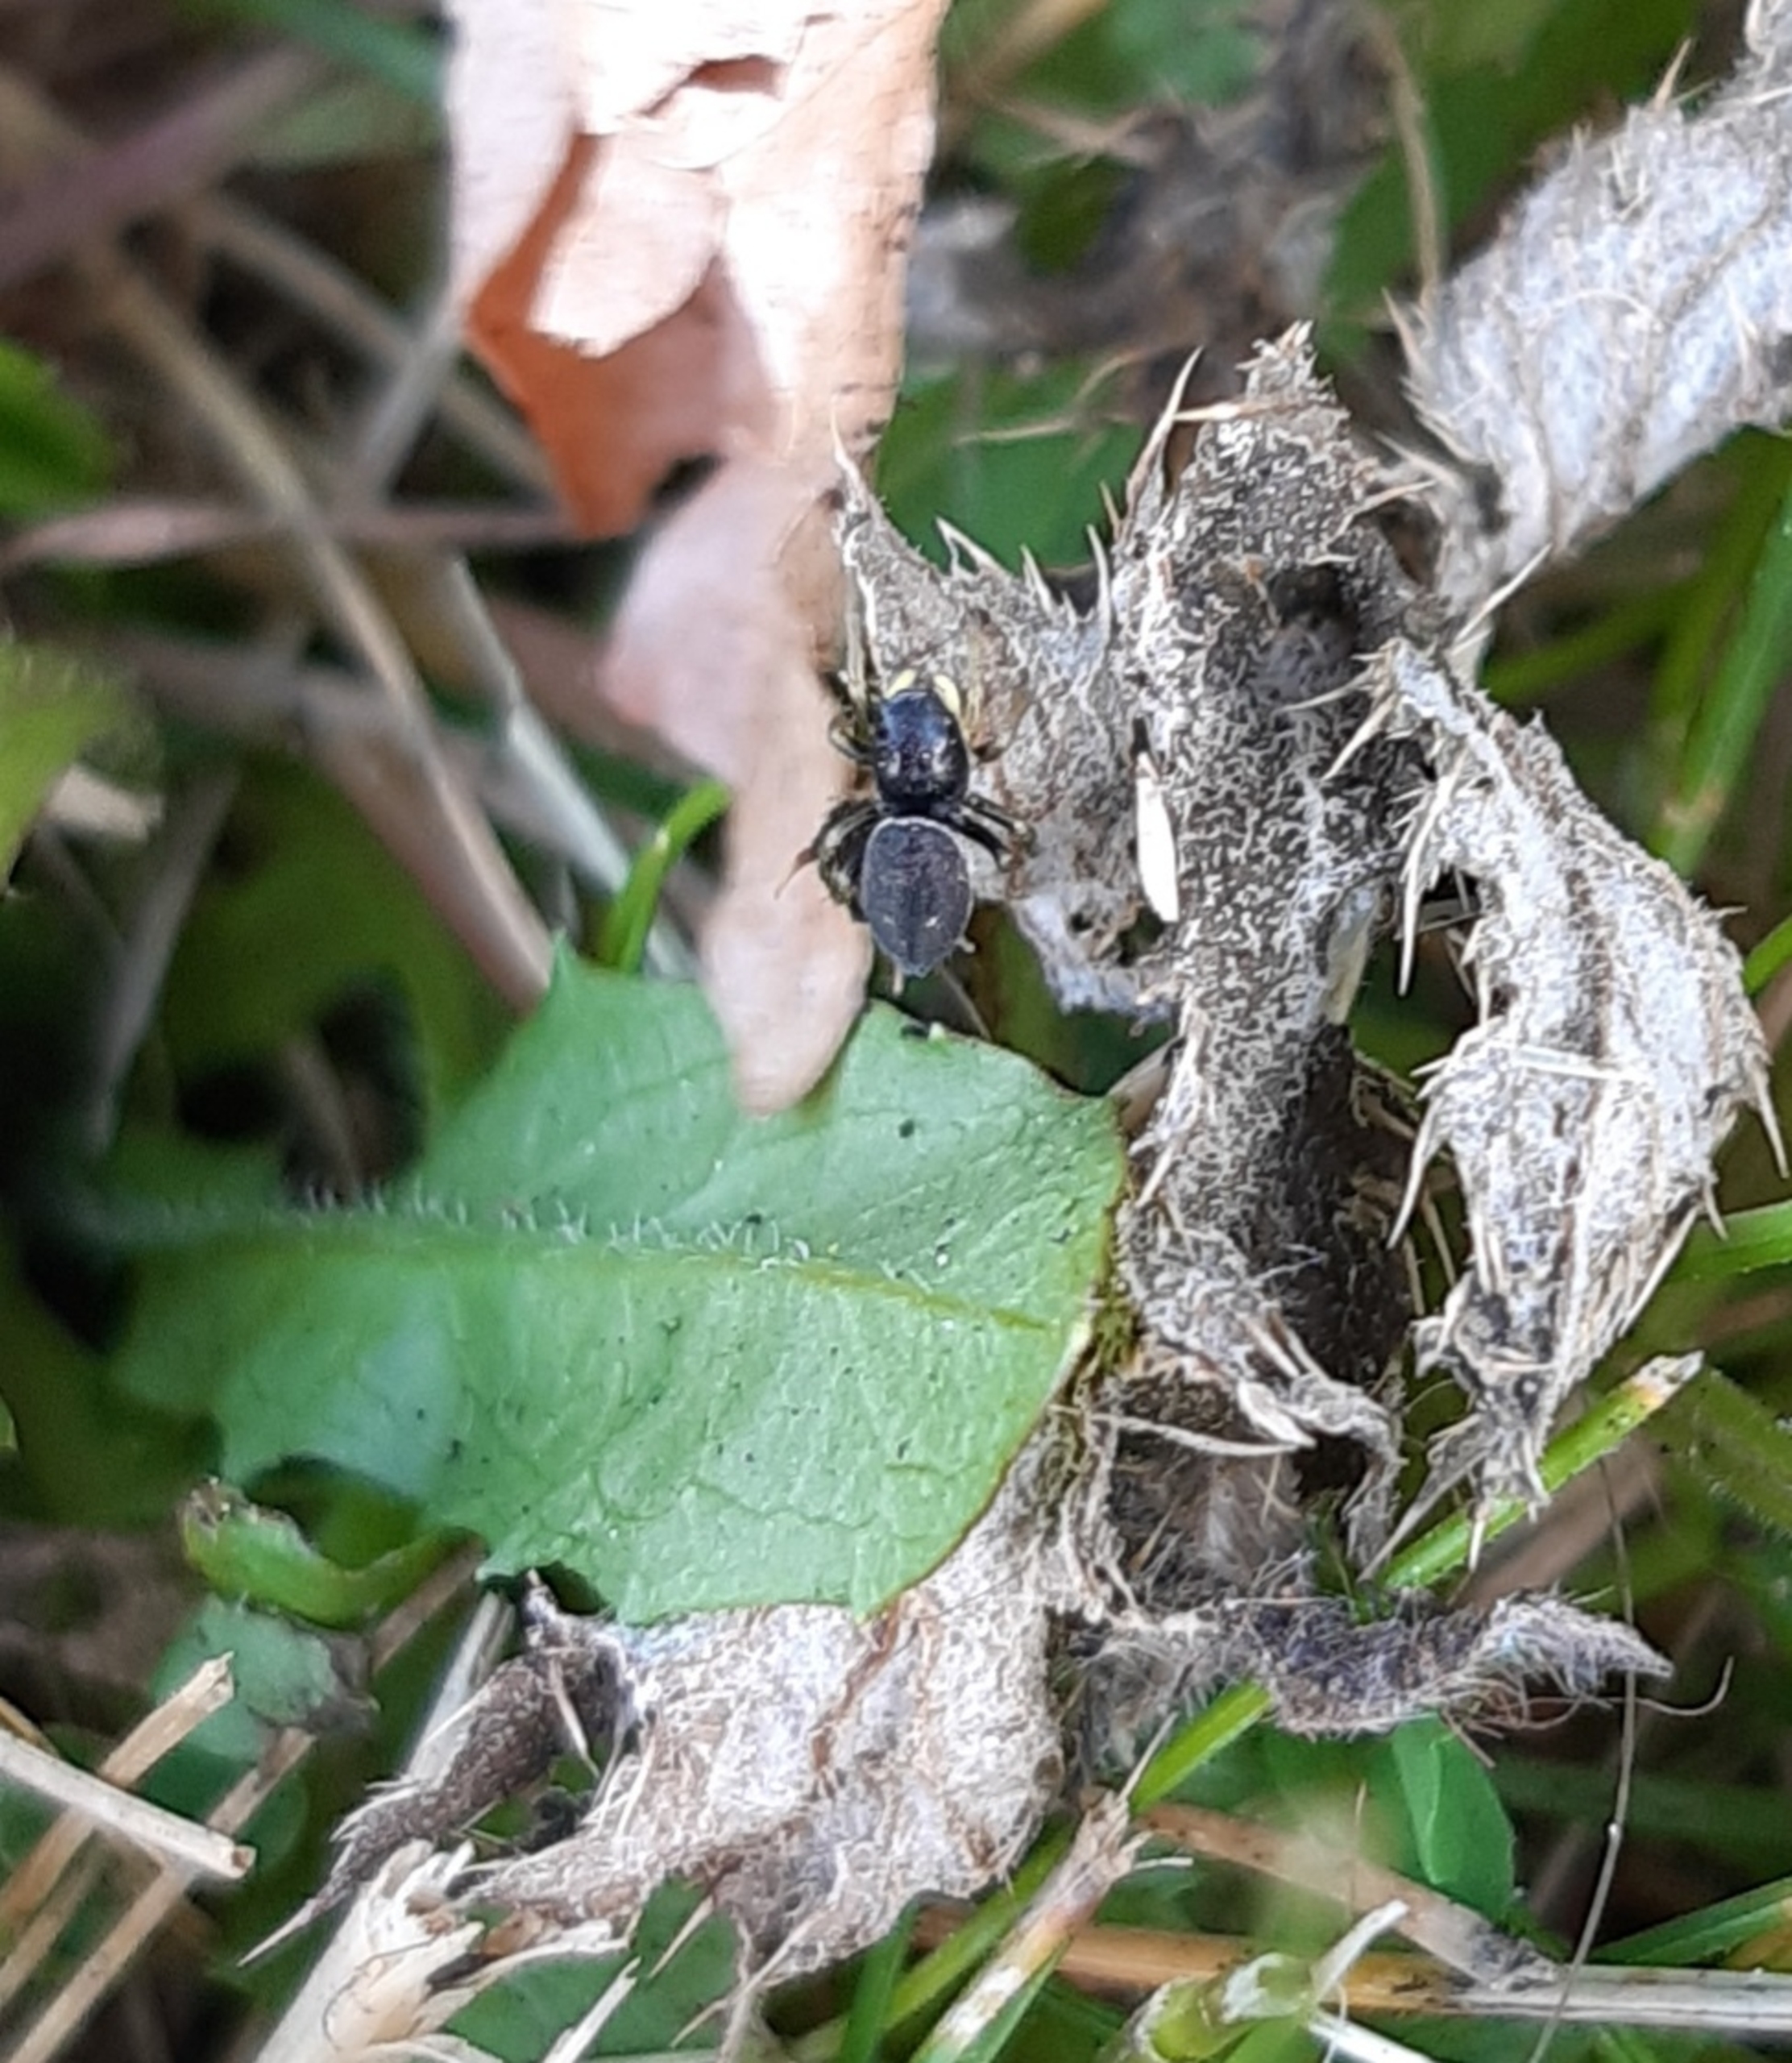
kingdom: Animalia
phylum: Arthropoda
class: Arachnida
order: Araneae
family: Salticidae
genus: Heliophanus
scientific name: Heliophanus
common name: Sortspringerslægten
